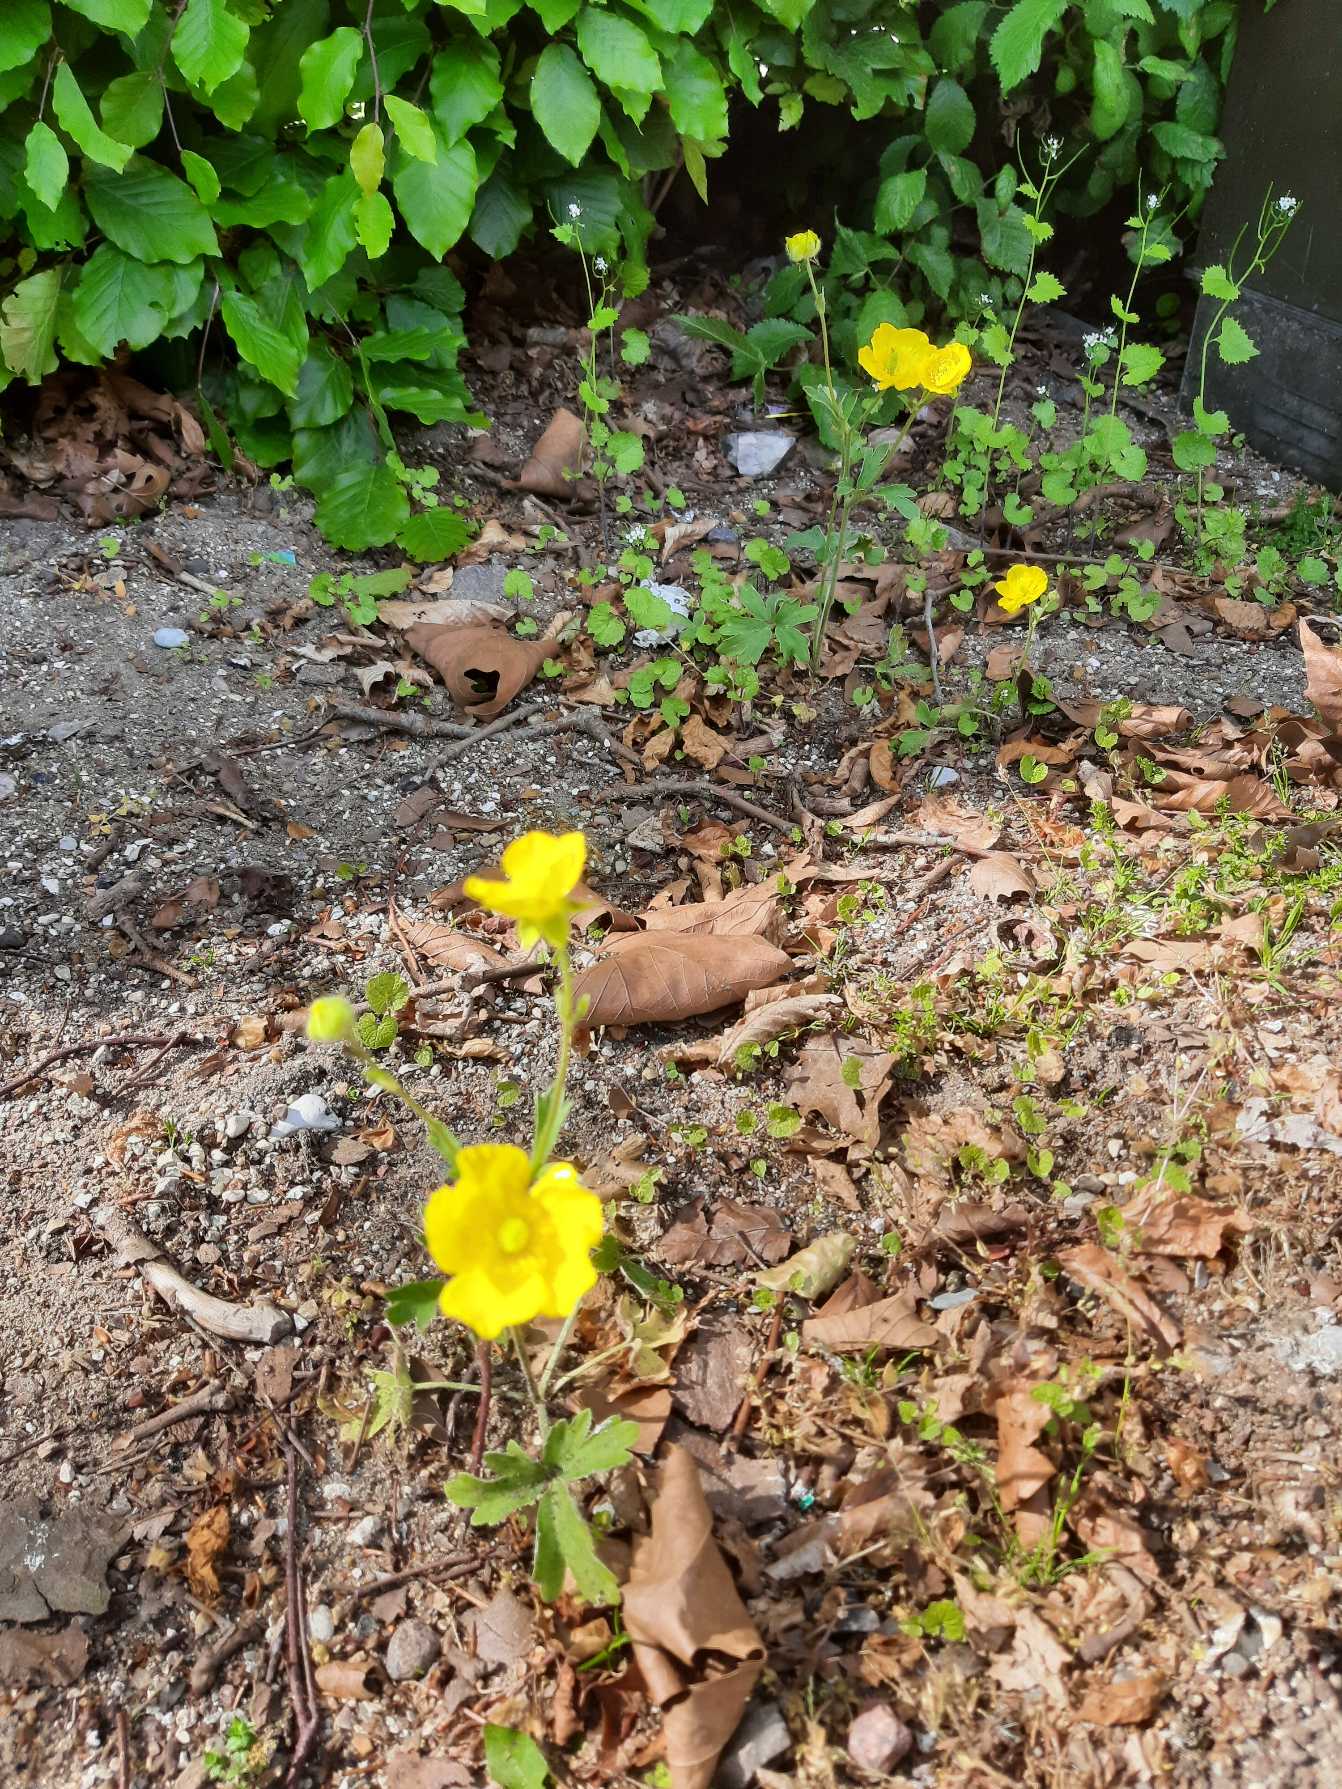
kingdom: Plantae
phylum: Tracheophyta
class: Magnoliopsida
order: Ranunculales
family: Ranunculaceae
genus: Ranunculus
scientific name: Ranunculus psilostachys
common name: Balkan-ranunkel
